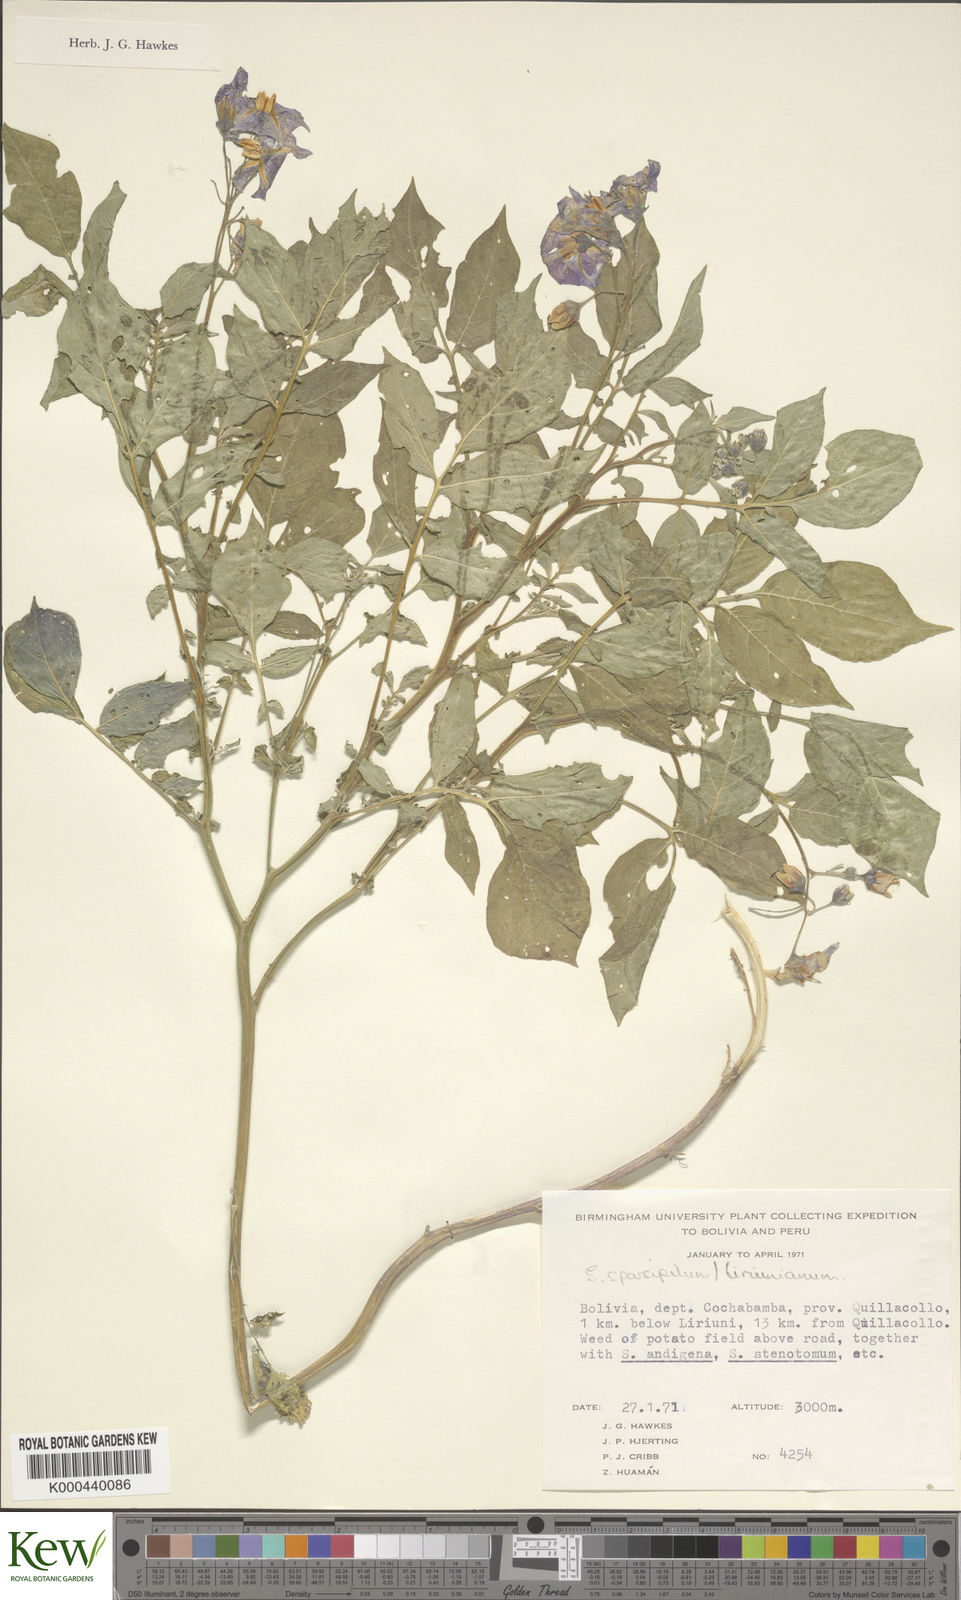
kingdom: Plantae
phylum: Tracheophyta
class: Magnoliopsida
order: Solanales
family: Solanaceae
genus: Solanum
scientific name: Solanum brevicaule
